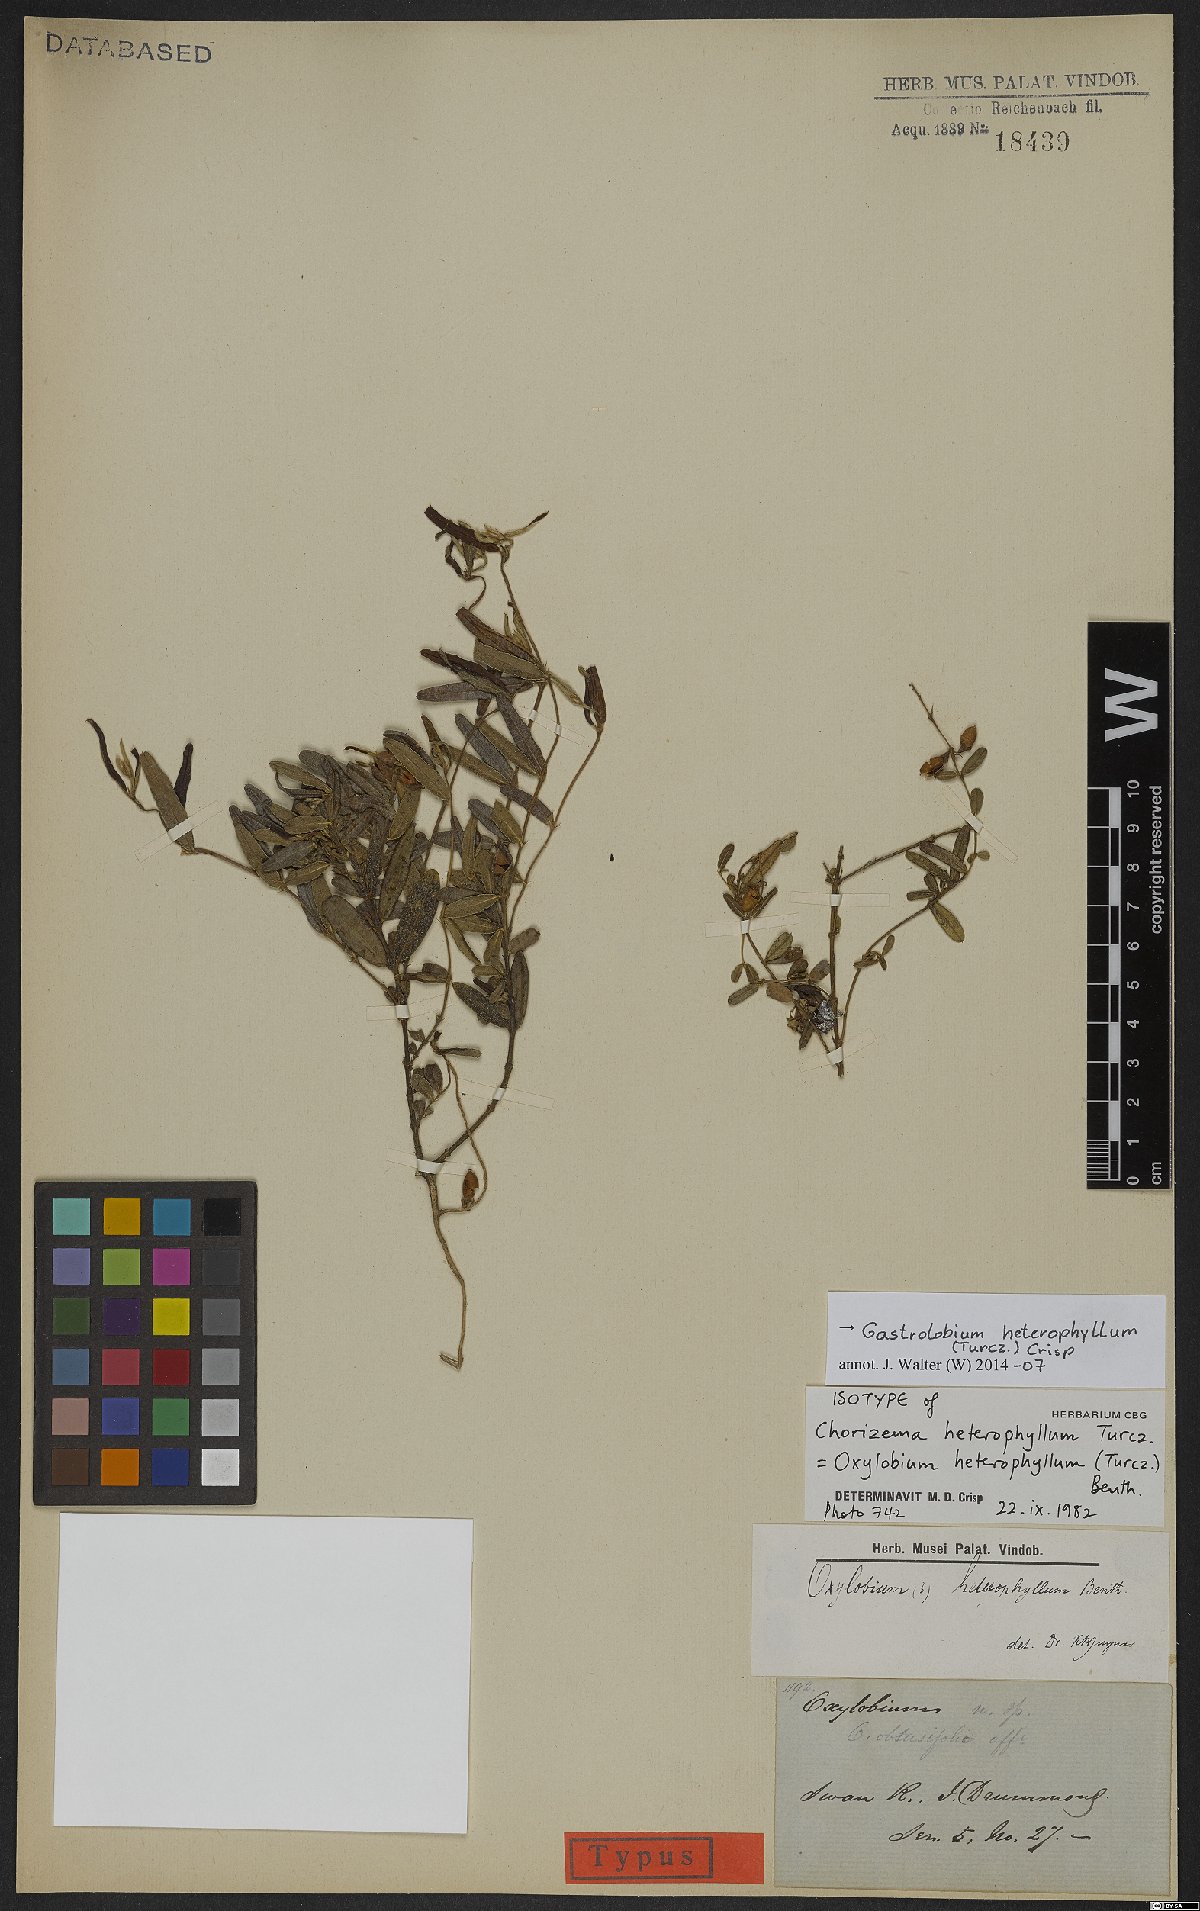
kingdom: Plantae
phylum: Tracheophyta
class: Magnoliopsida
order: Fabales
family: Fabaceae
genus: Gastrolobium
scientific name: Gastrolobium heterophyllum
